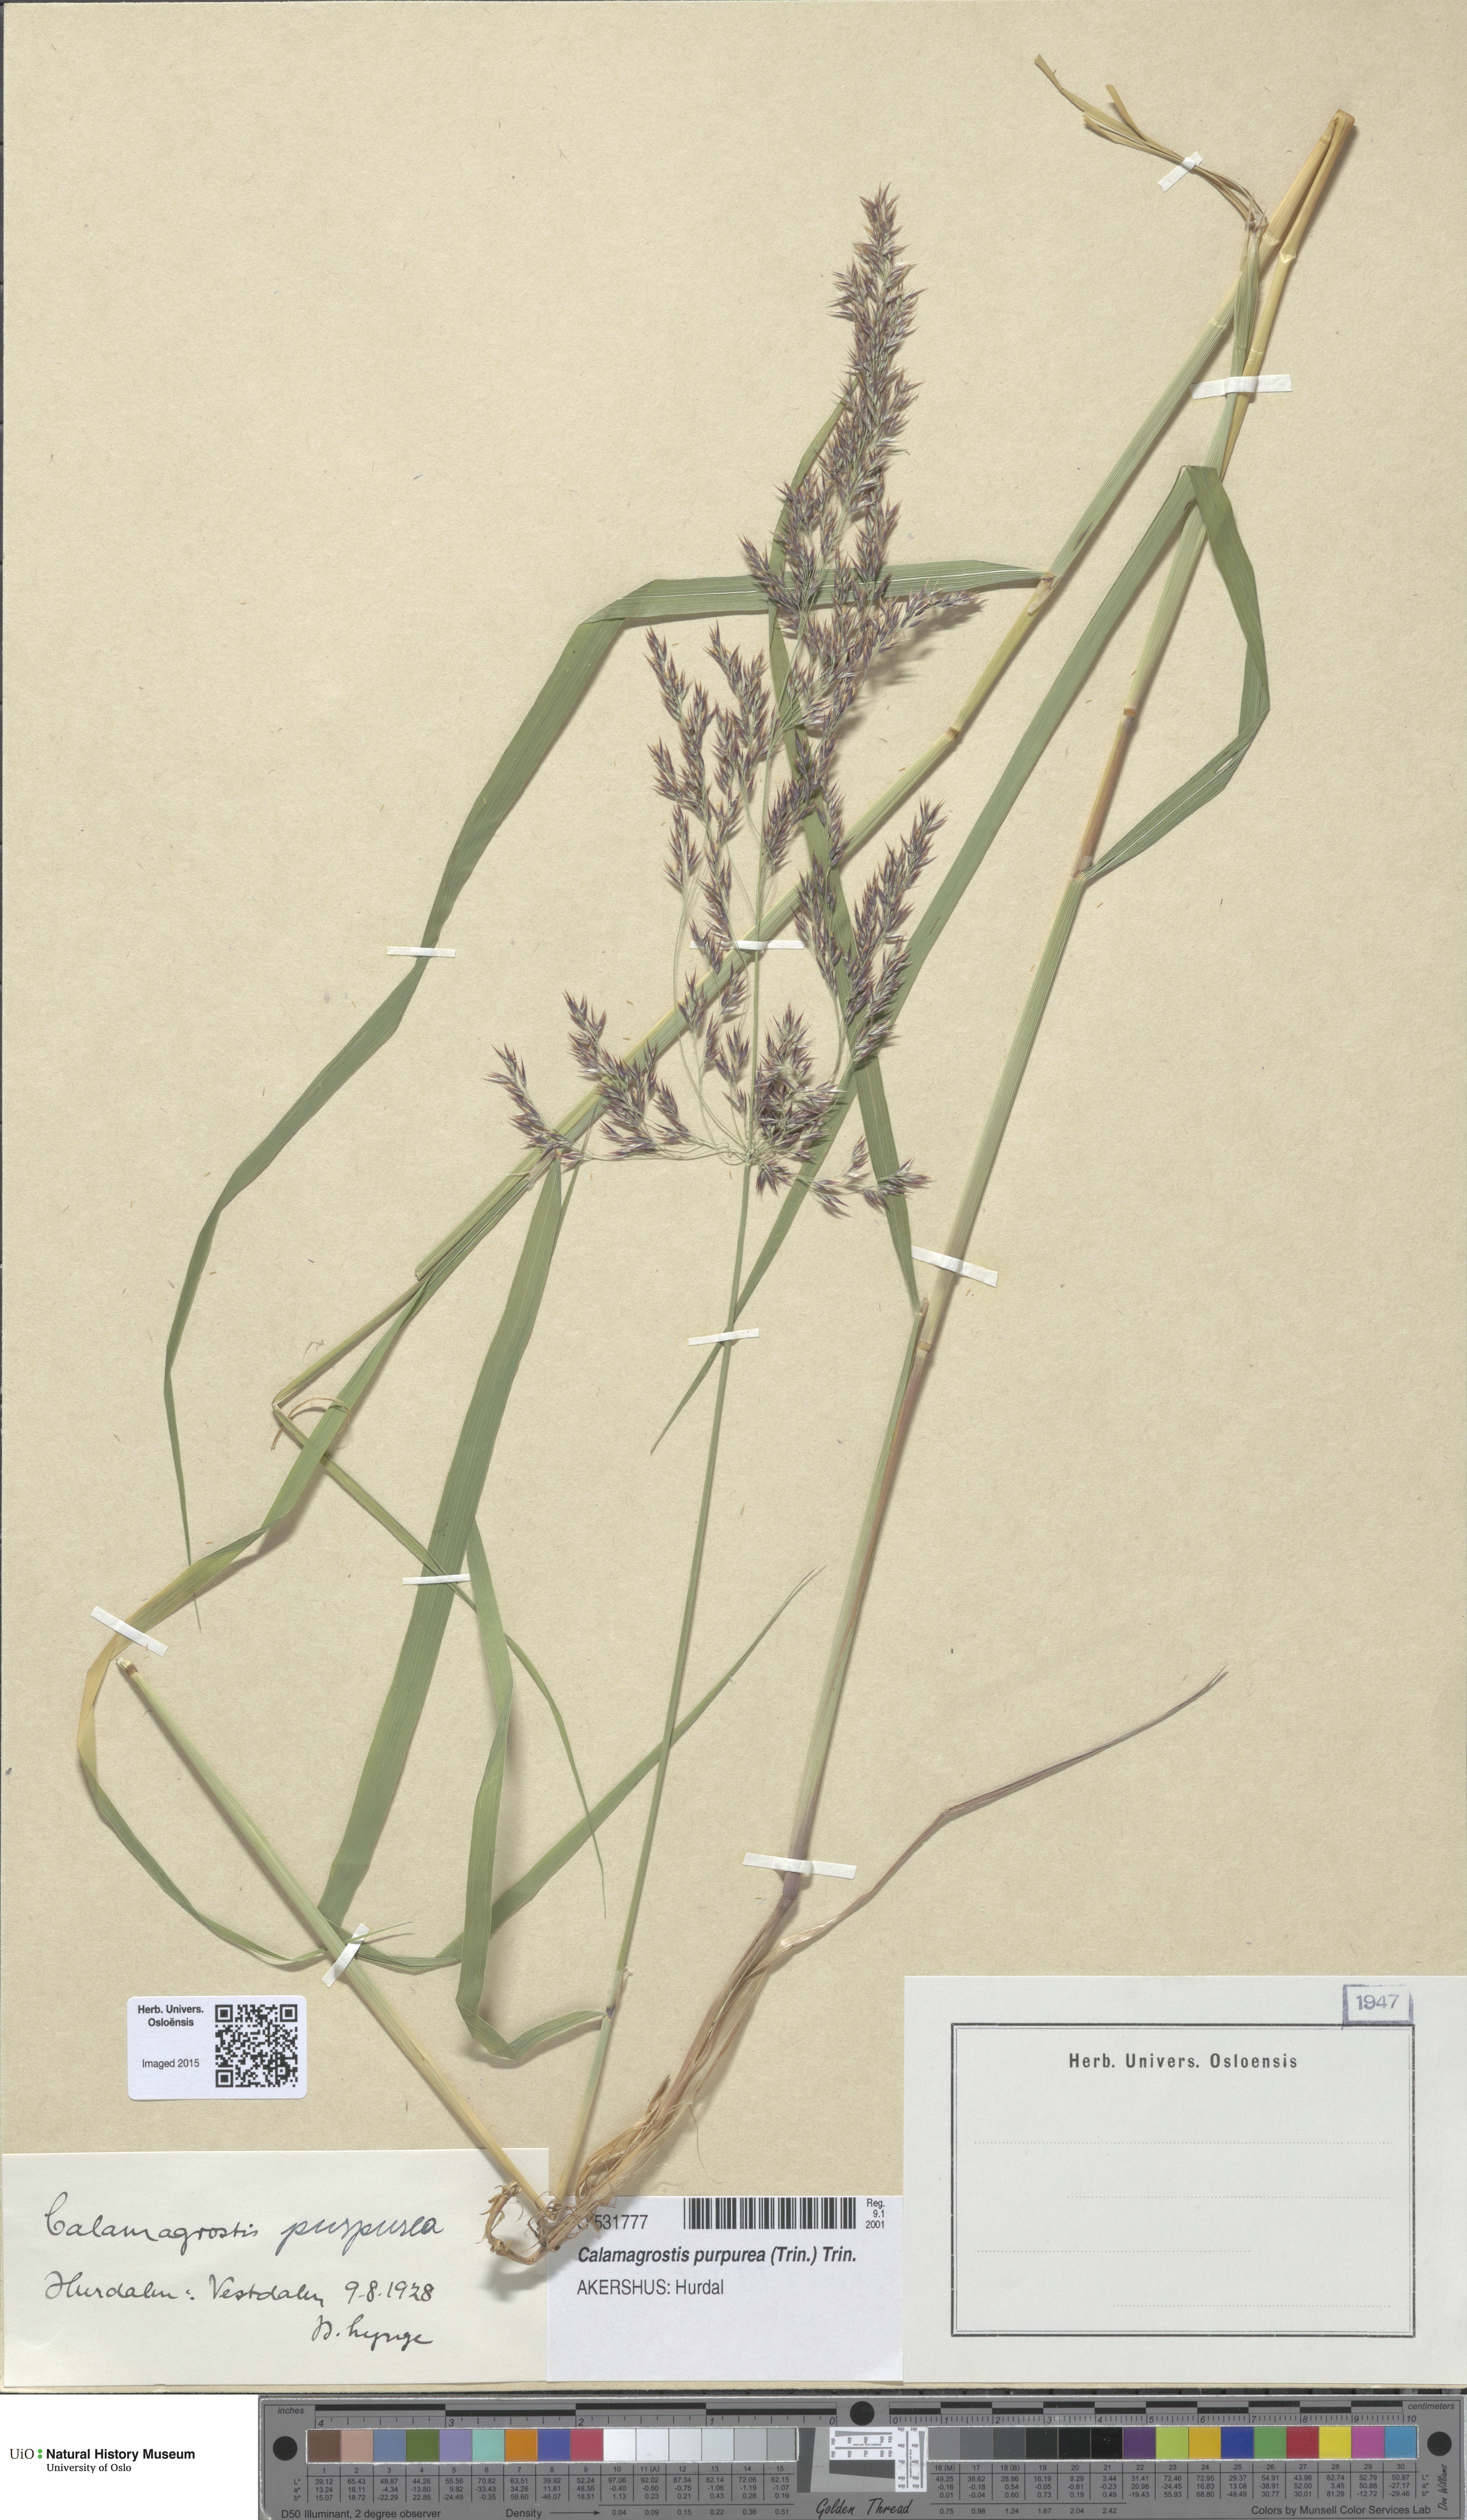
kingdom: Plantae
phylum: Tracheophyta
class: Liliopsida
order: Poales
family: Poaceae
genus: Calamagrostis
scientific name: Calamagrostis purpurea
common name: Scandinavian small-reed
